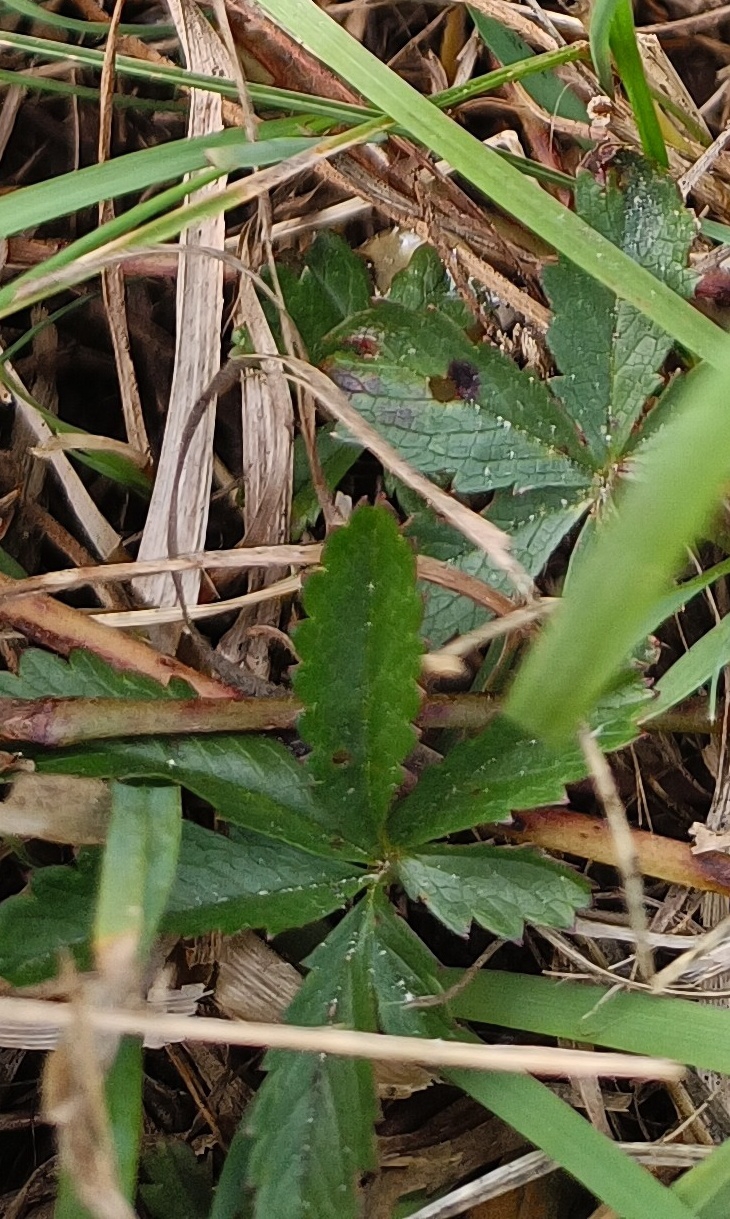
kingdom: Plantae
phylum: Tracheophyta
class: Magnoliopsida
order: Rosales
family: Rosaceae
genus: Potentilla
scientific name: Potentilla reptans
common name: Krybende potentil
